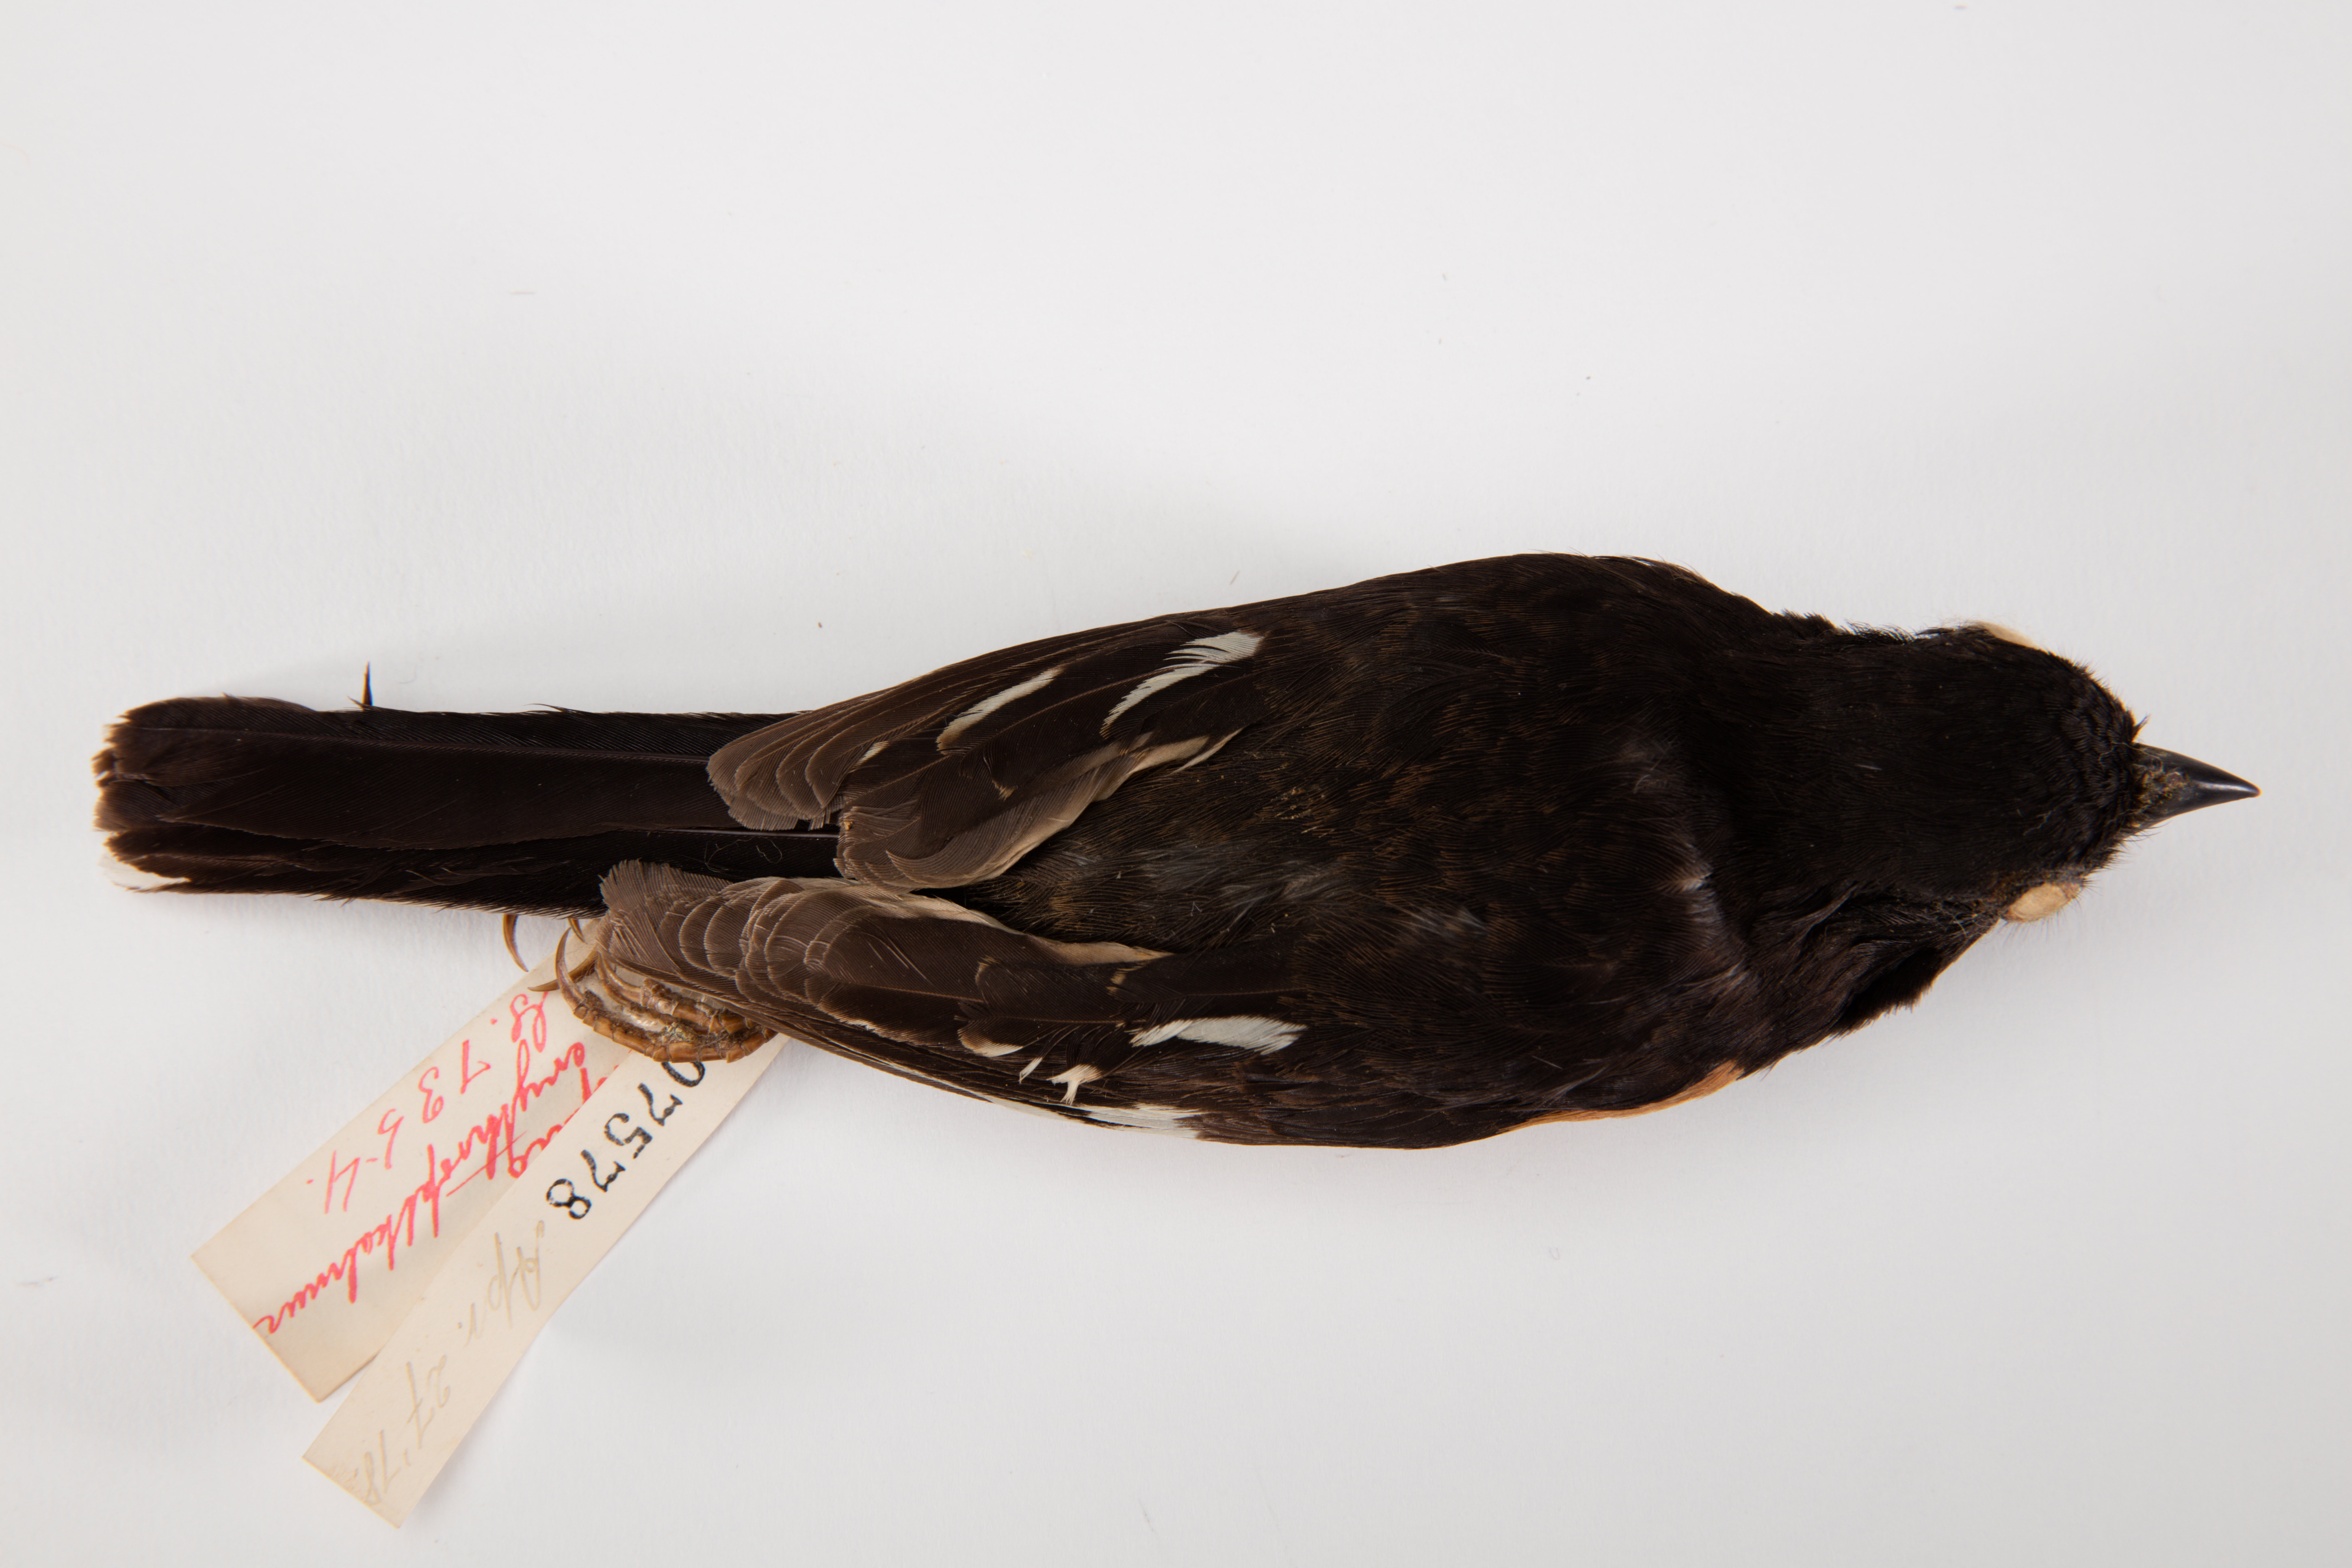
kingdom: Animalia
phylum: Chordata
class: Aves
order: Passeriformes
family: Passerellidae
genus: Pipilo
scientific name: Pipilo erythrophthalmus
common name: Eastern towhee
